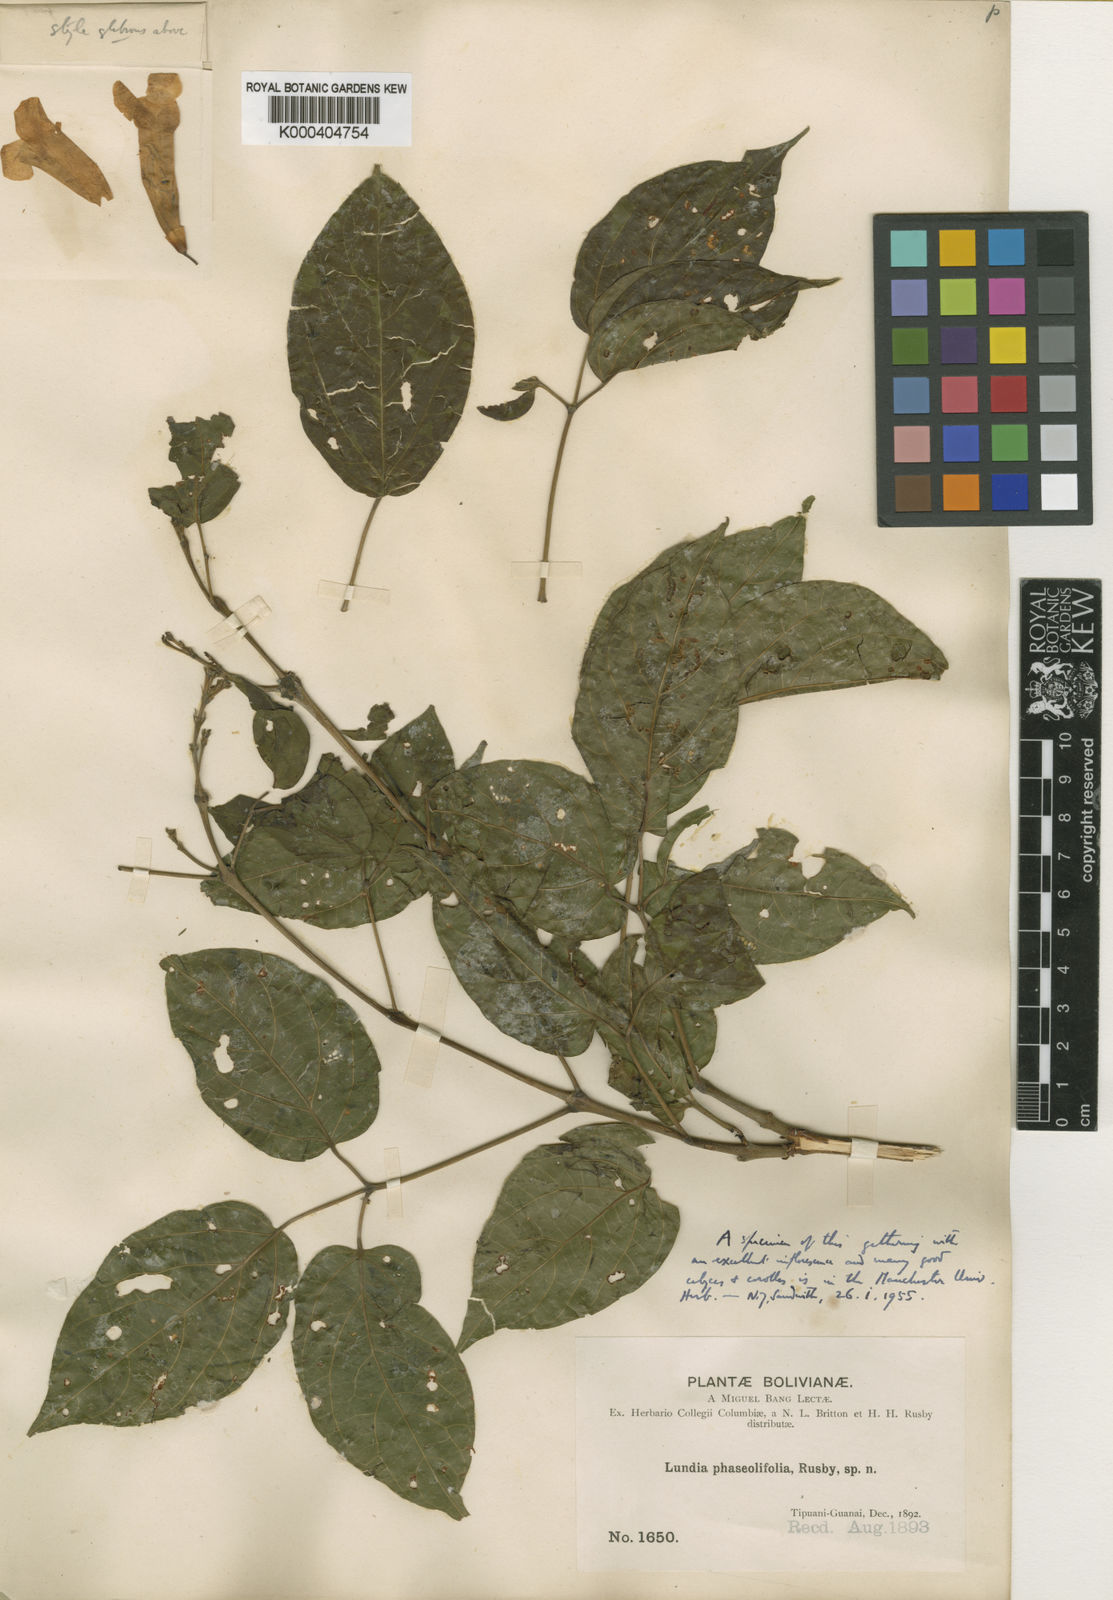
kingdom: Plantae
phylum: Tracheophyta
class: Magnoliopsida
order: Lamiales
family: Bignoniaceae
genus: Lundia
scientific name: Lundia corymbifera
